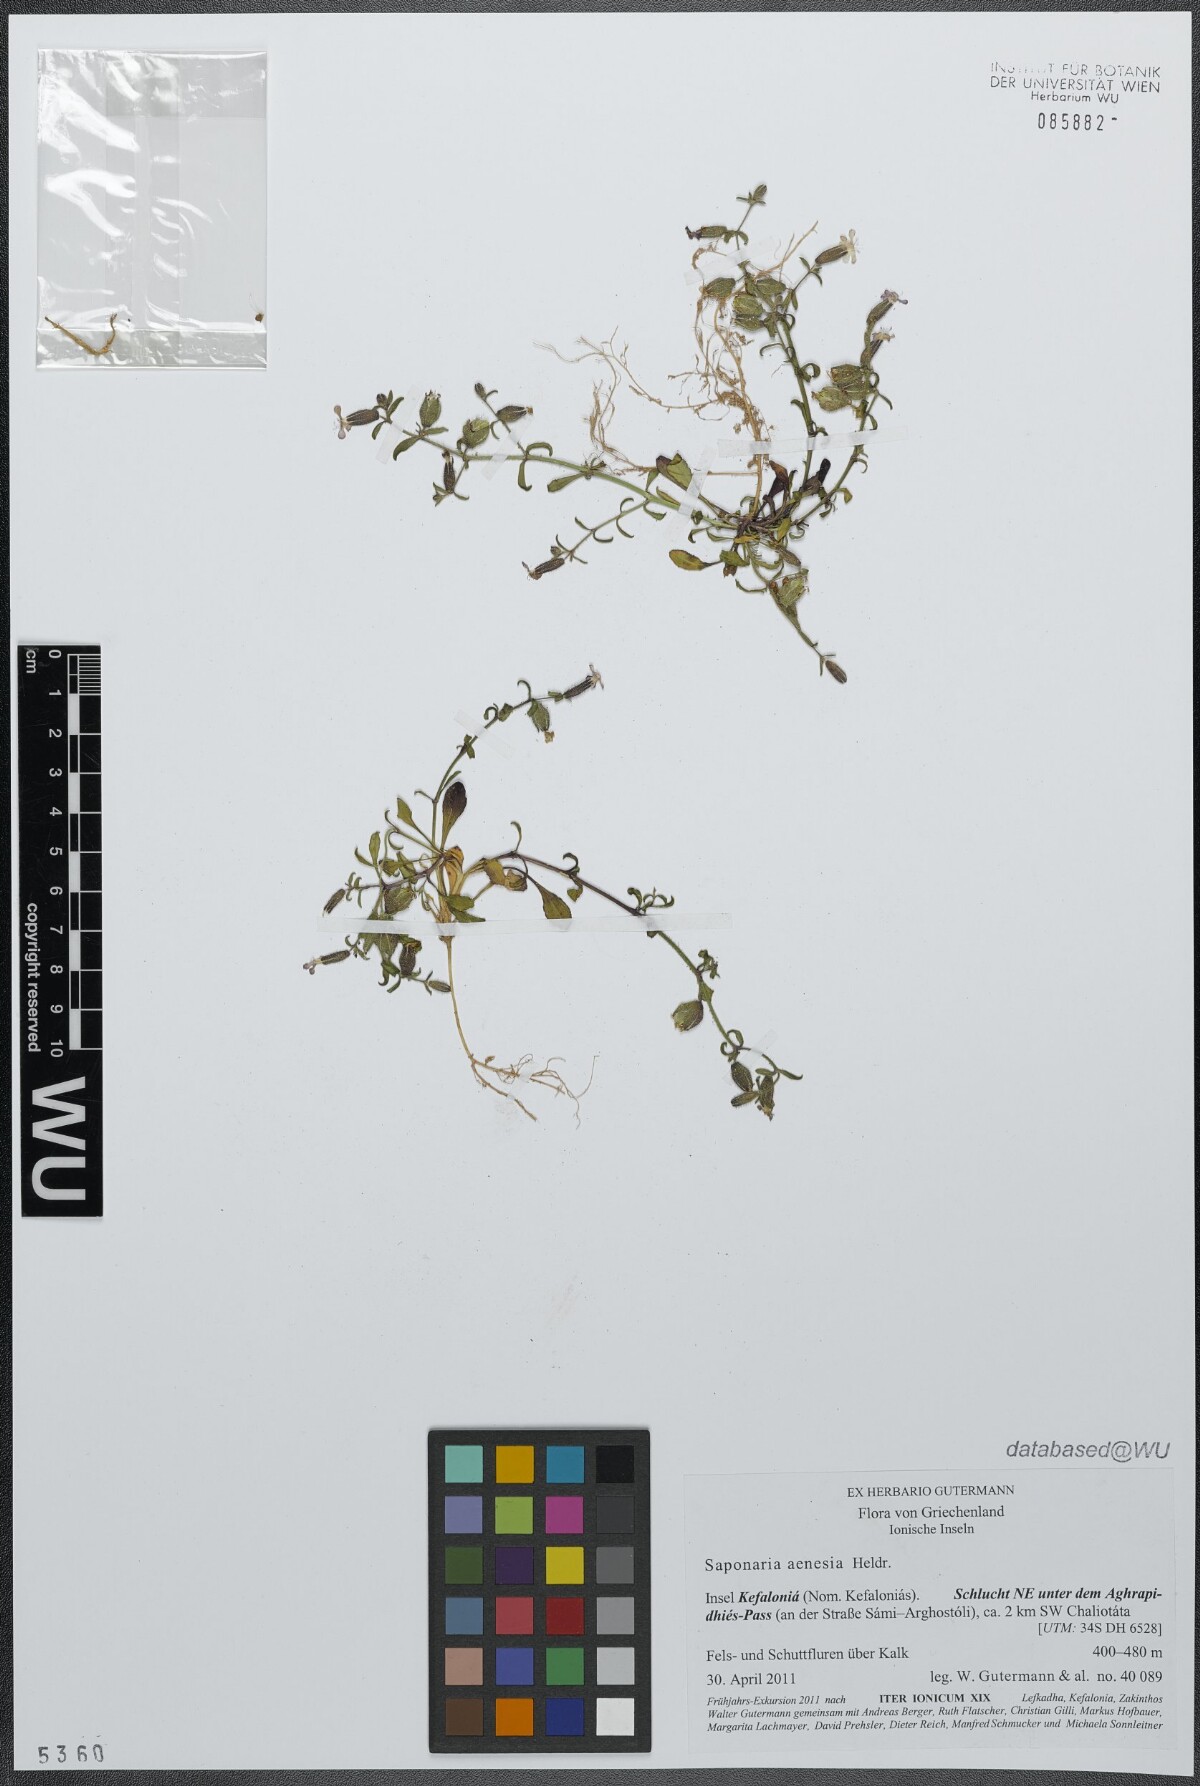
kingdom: Plantae
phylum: Tracheophyta
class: Magnoliopsida
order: Caryophyllales
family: Caryophyllaceae
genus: Saponaria
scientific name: Saponaria aenesia
